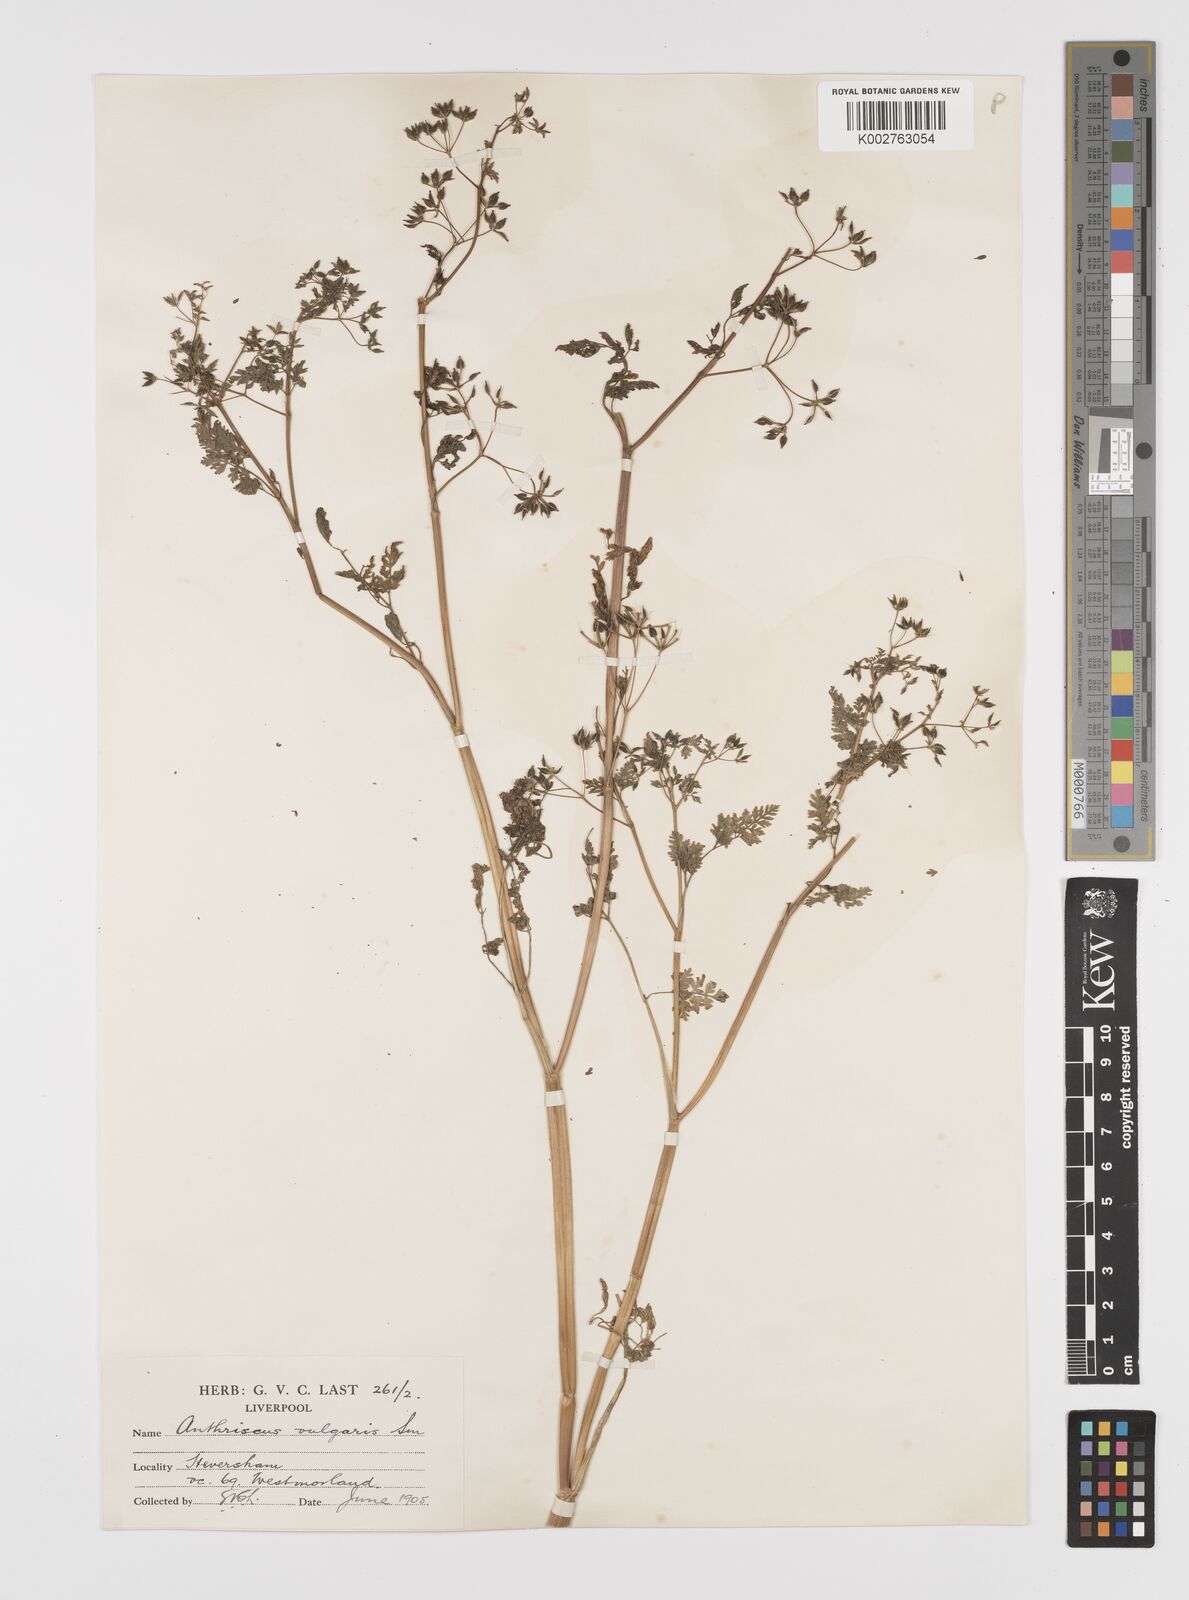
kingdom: Plantae
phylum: Tracheophyta
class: Magnoliopsida
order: Apiales
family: Apiaceae
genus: Anthriscus
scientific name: Anthriscus caucalis
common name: Bur chervil
